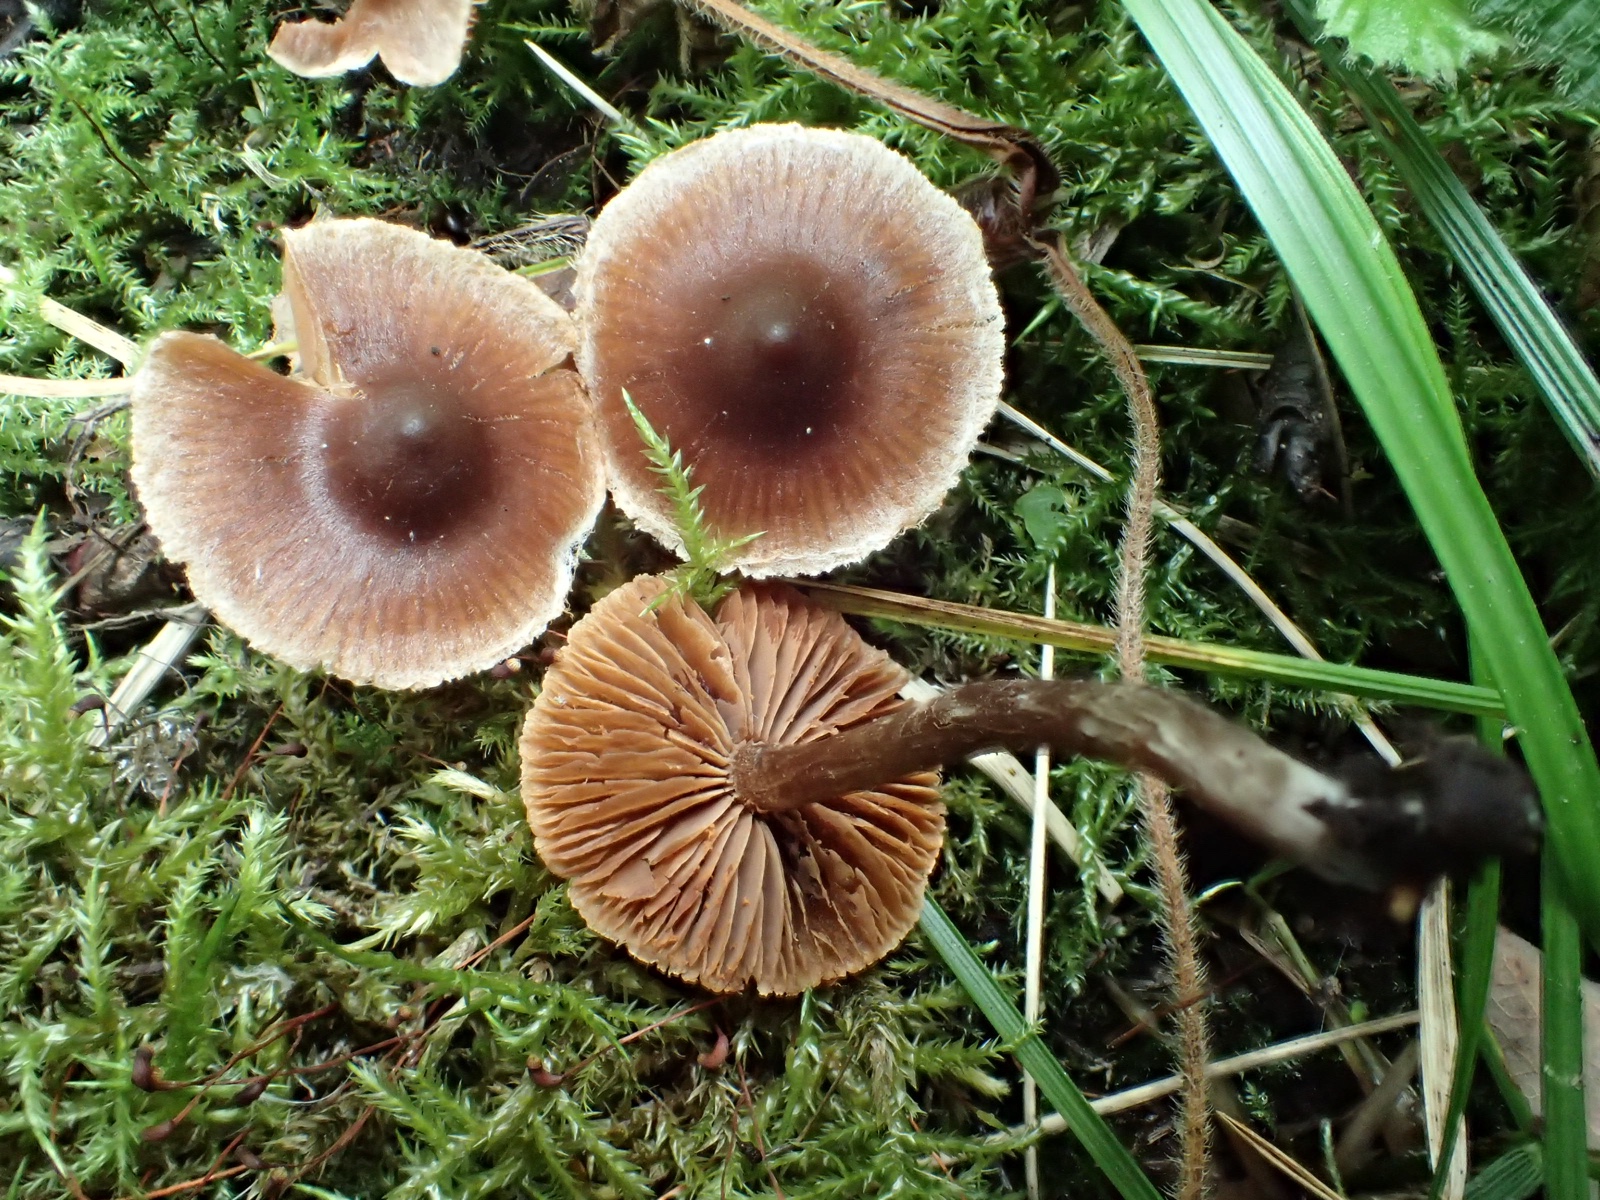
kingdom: Fungi
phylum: Basidiomycota
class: Agaricomycetes
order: Agaricales
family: Cortinariaceae
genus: Cortinarius
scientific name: Cortinarius
